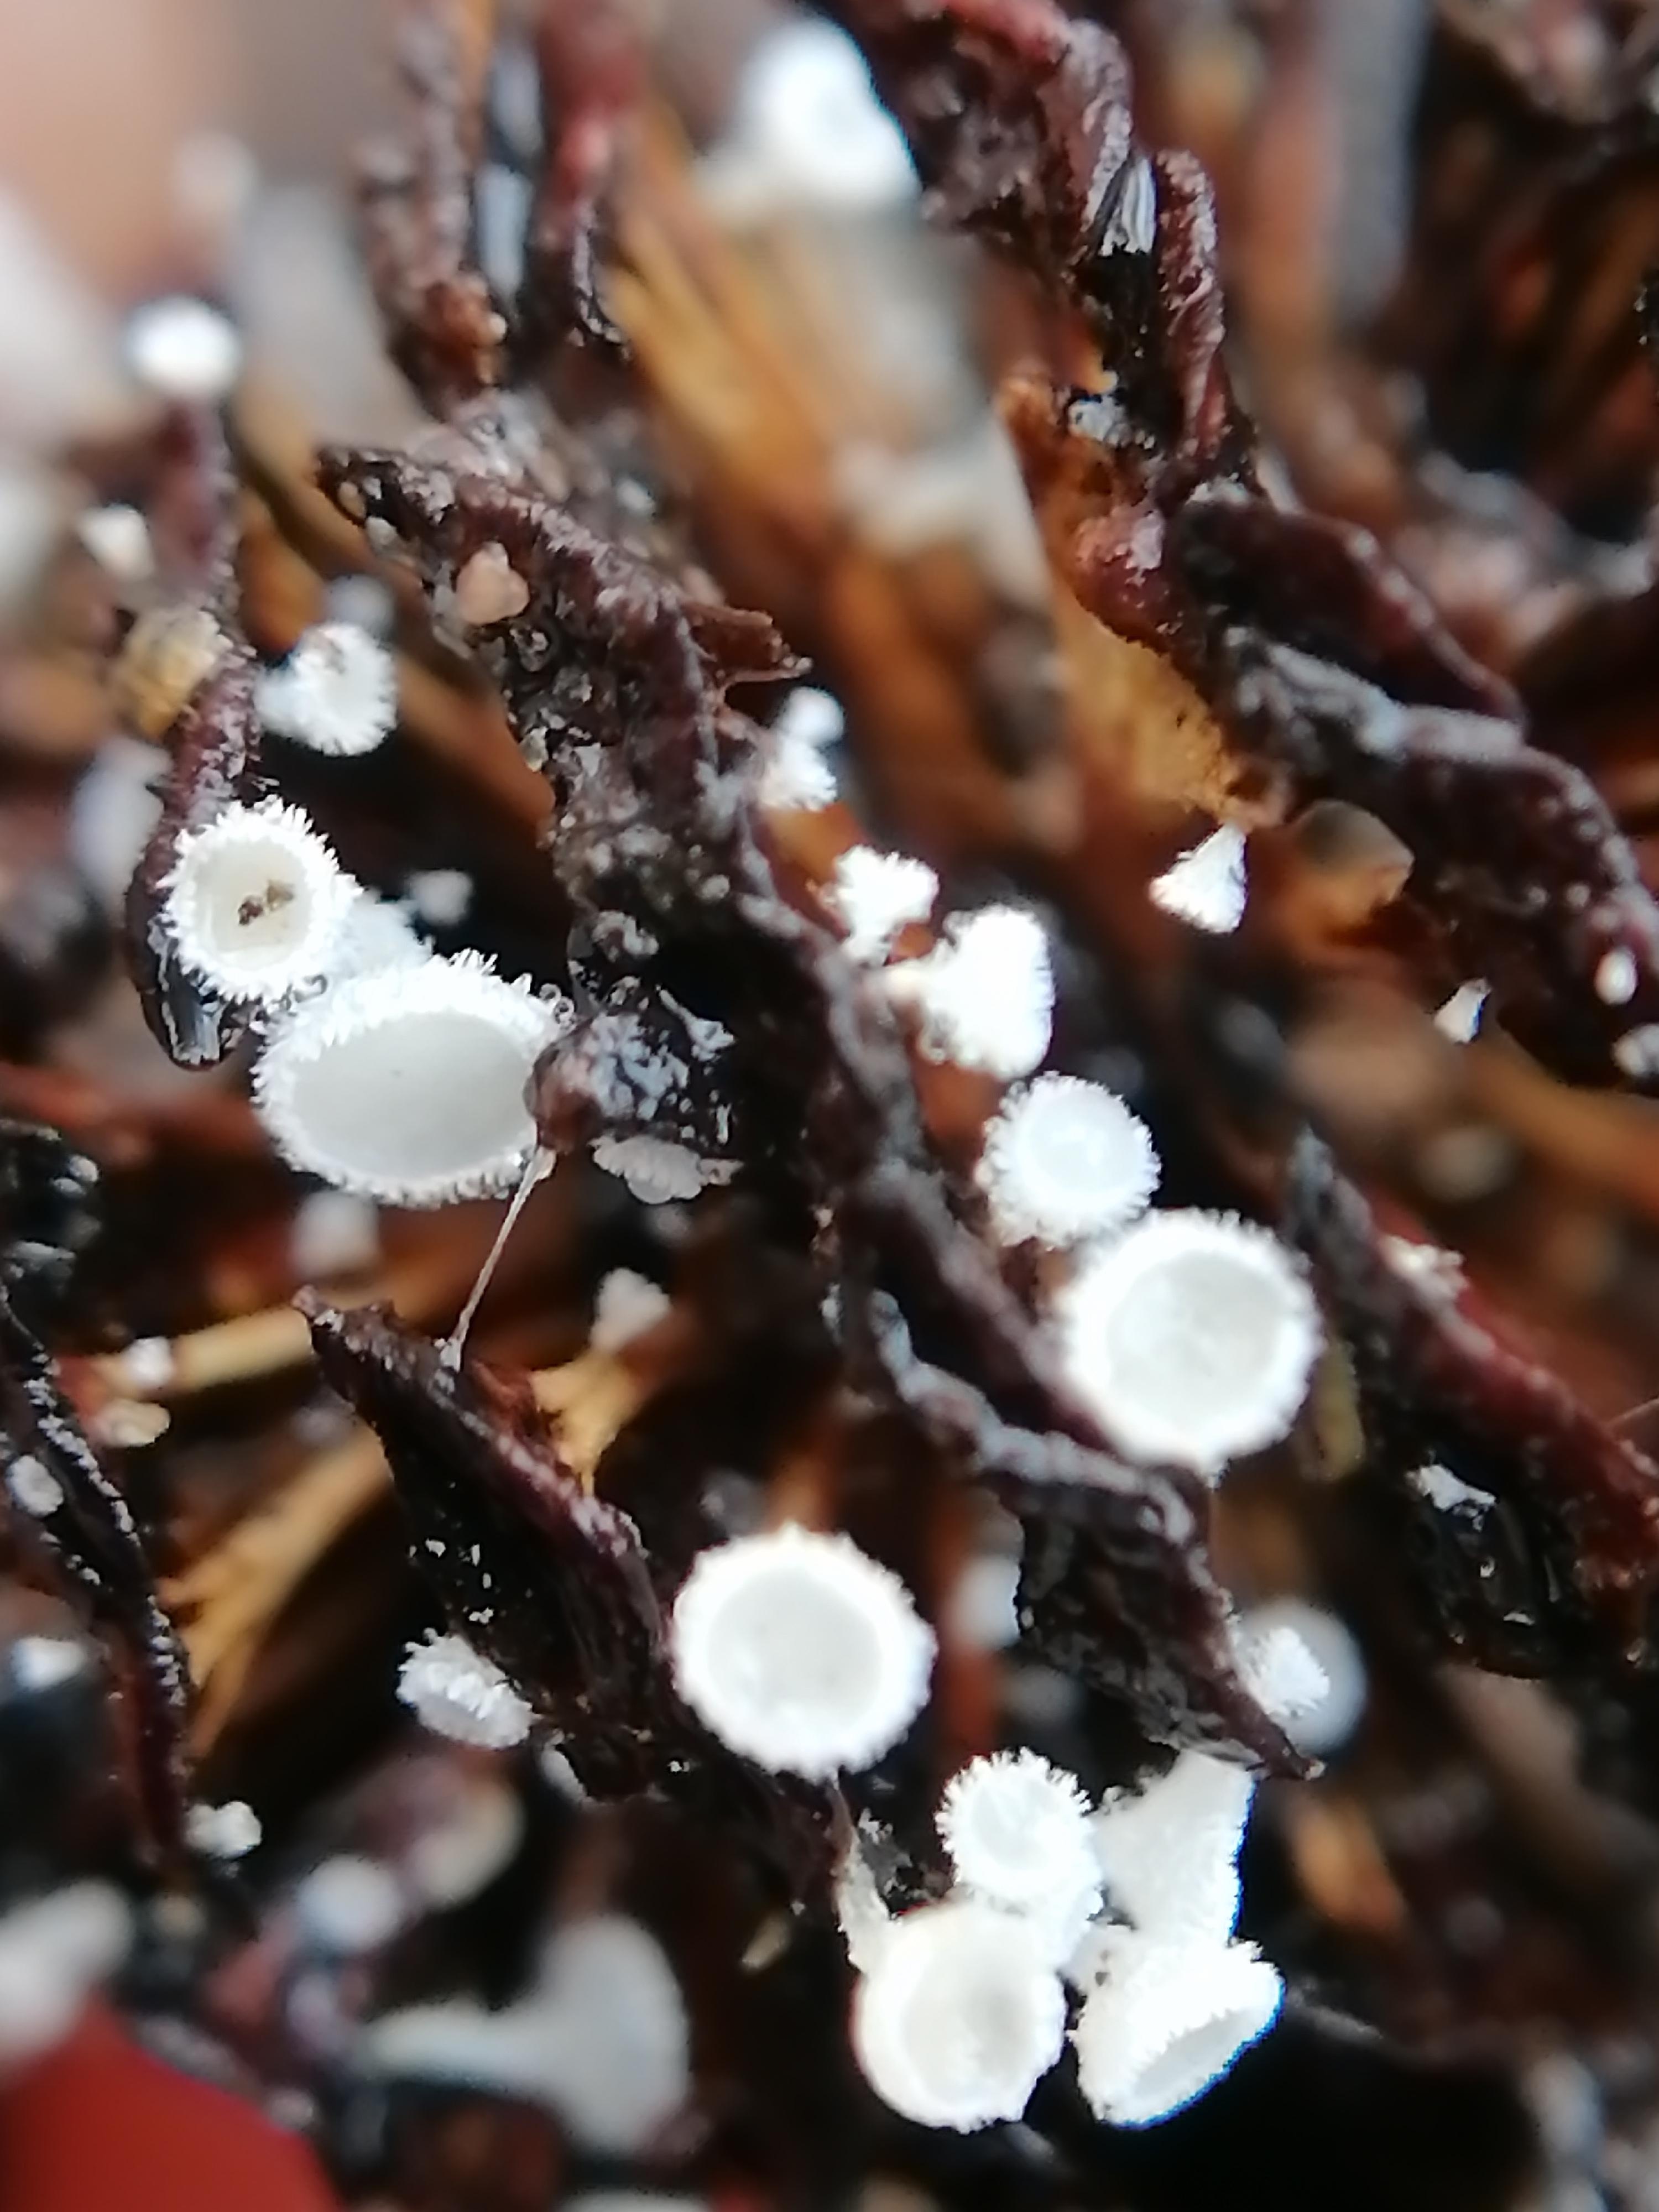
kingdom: Fungi
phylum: Ascomycota
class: Leotiomycetes
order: Helotiales
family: Lachnaceae
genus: Lachnum
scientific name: Lachnum virgineum
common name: jomfru-frynseskive
